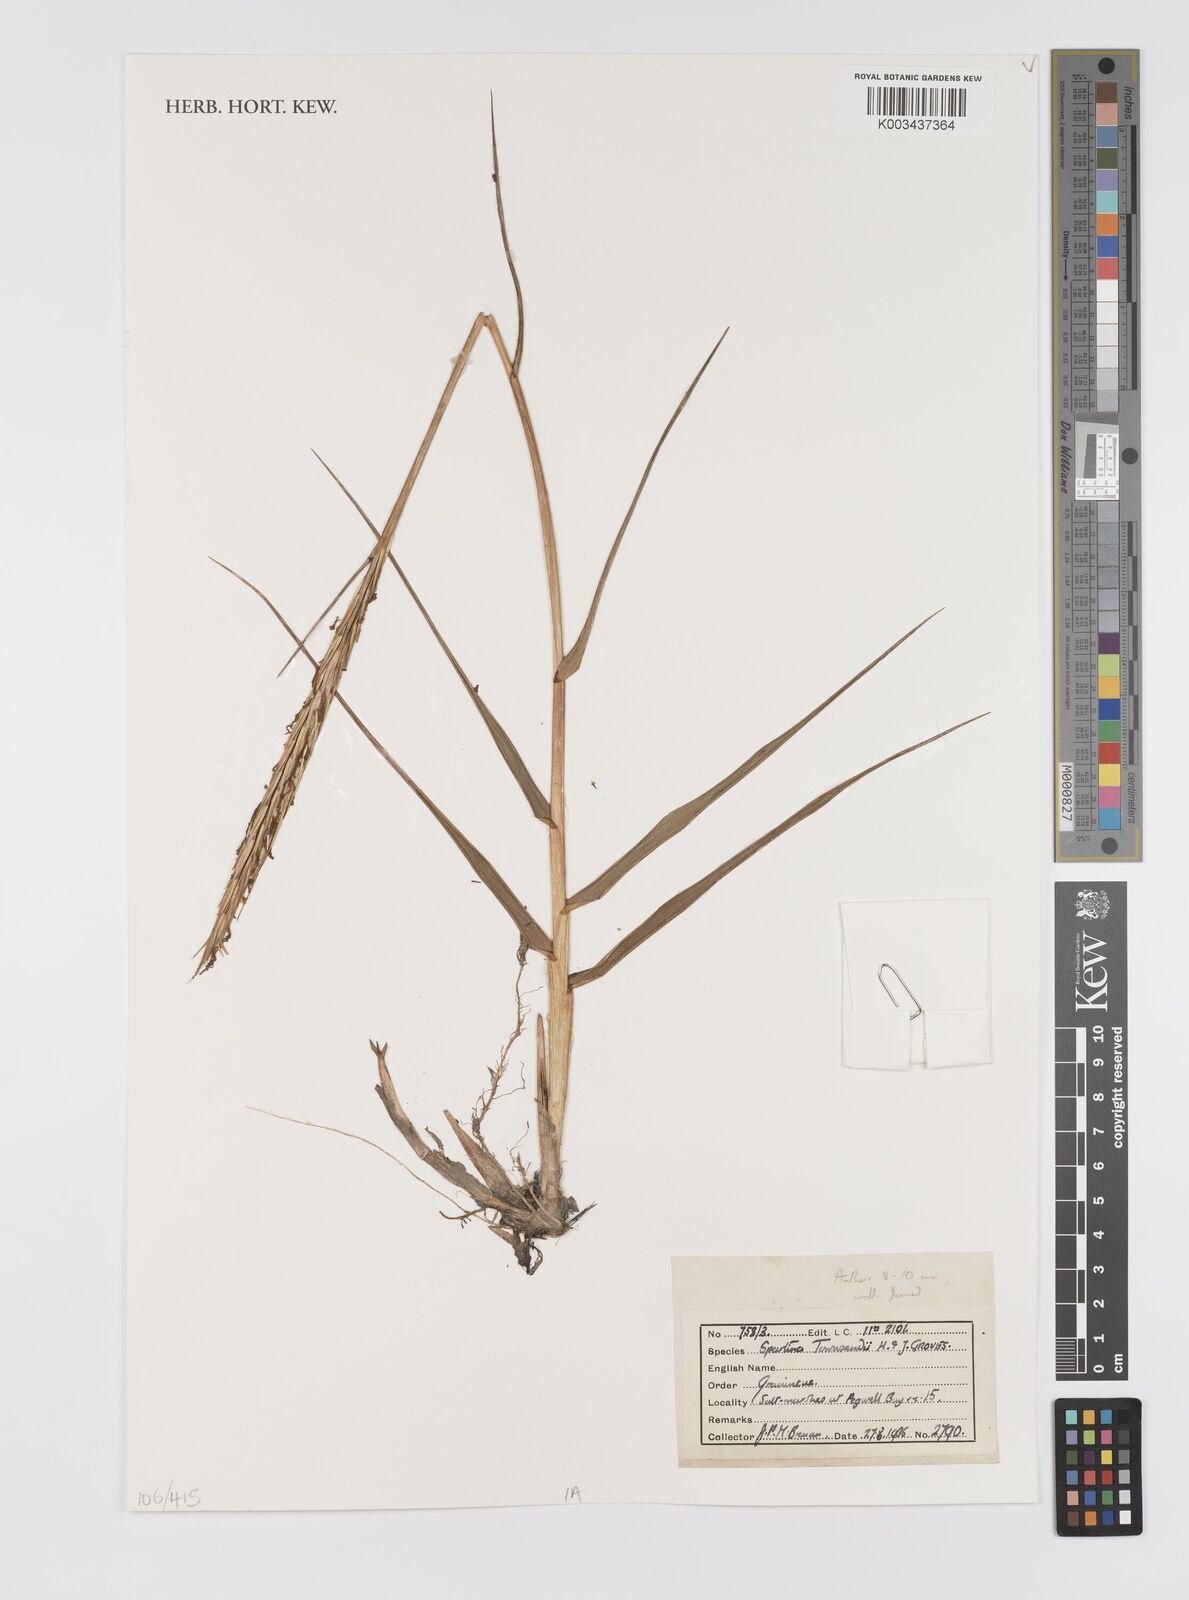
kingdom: Plantae
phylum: Tracheophyta
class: Liliopsida
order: Poales
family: Poaceae
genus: Sporobolus
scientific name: Sporobolus townsendii
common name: Townsend's cordgrass
